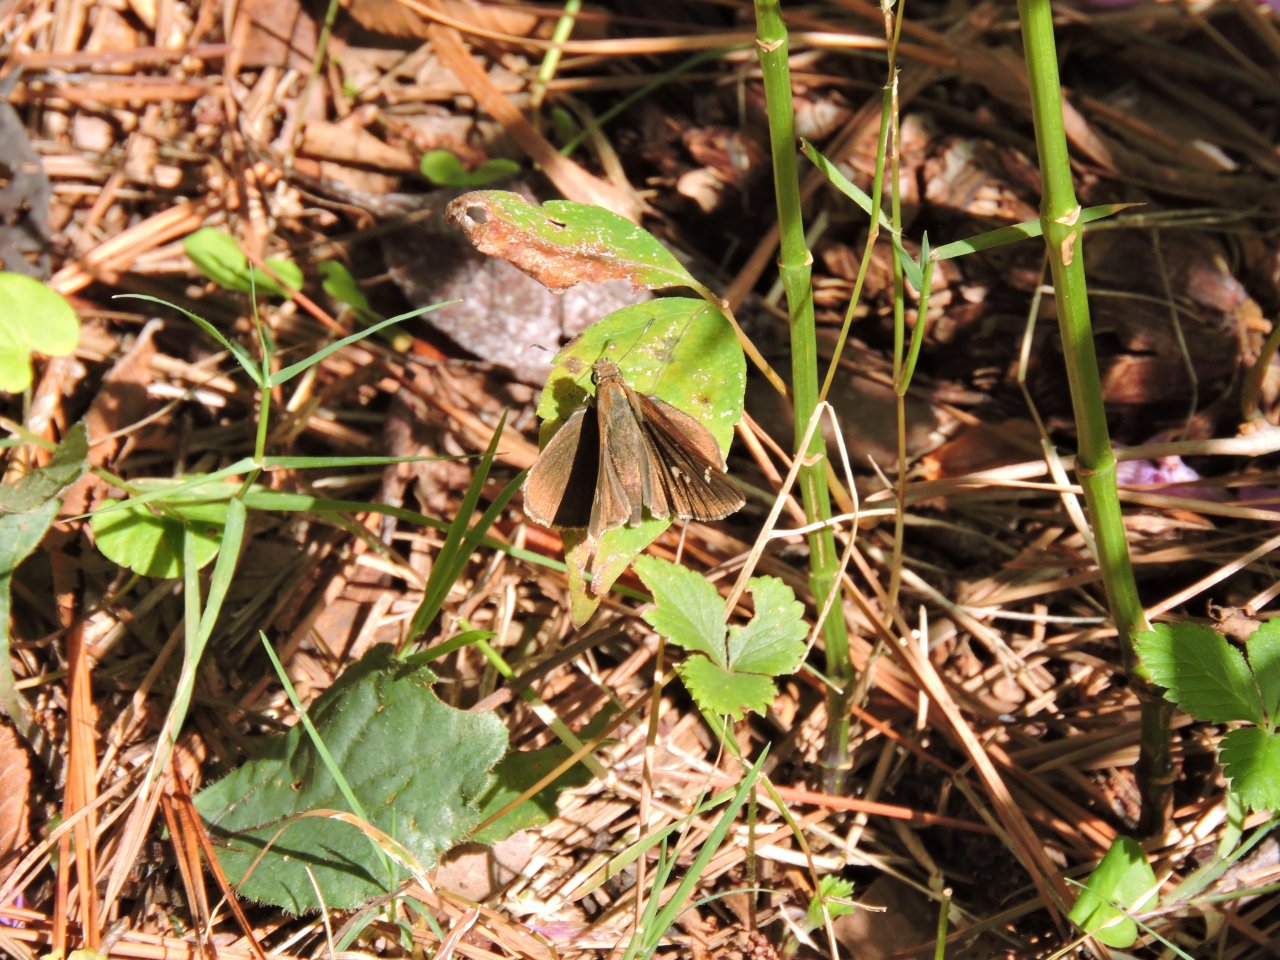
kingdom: Animalia
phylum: Arthropoda
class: Insecta
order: Lepidoptera
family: Hesperiidae
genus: Lerema
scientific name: Lerema accius
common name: Clouded Skipper
